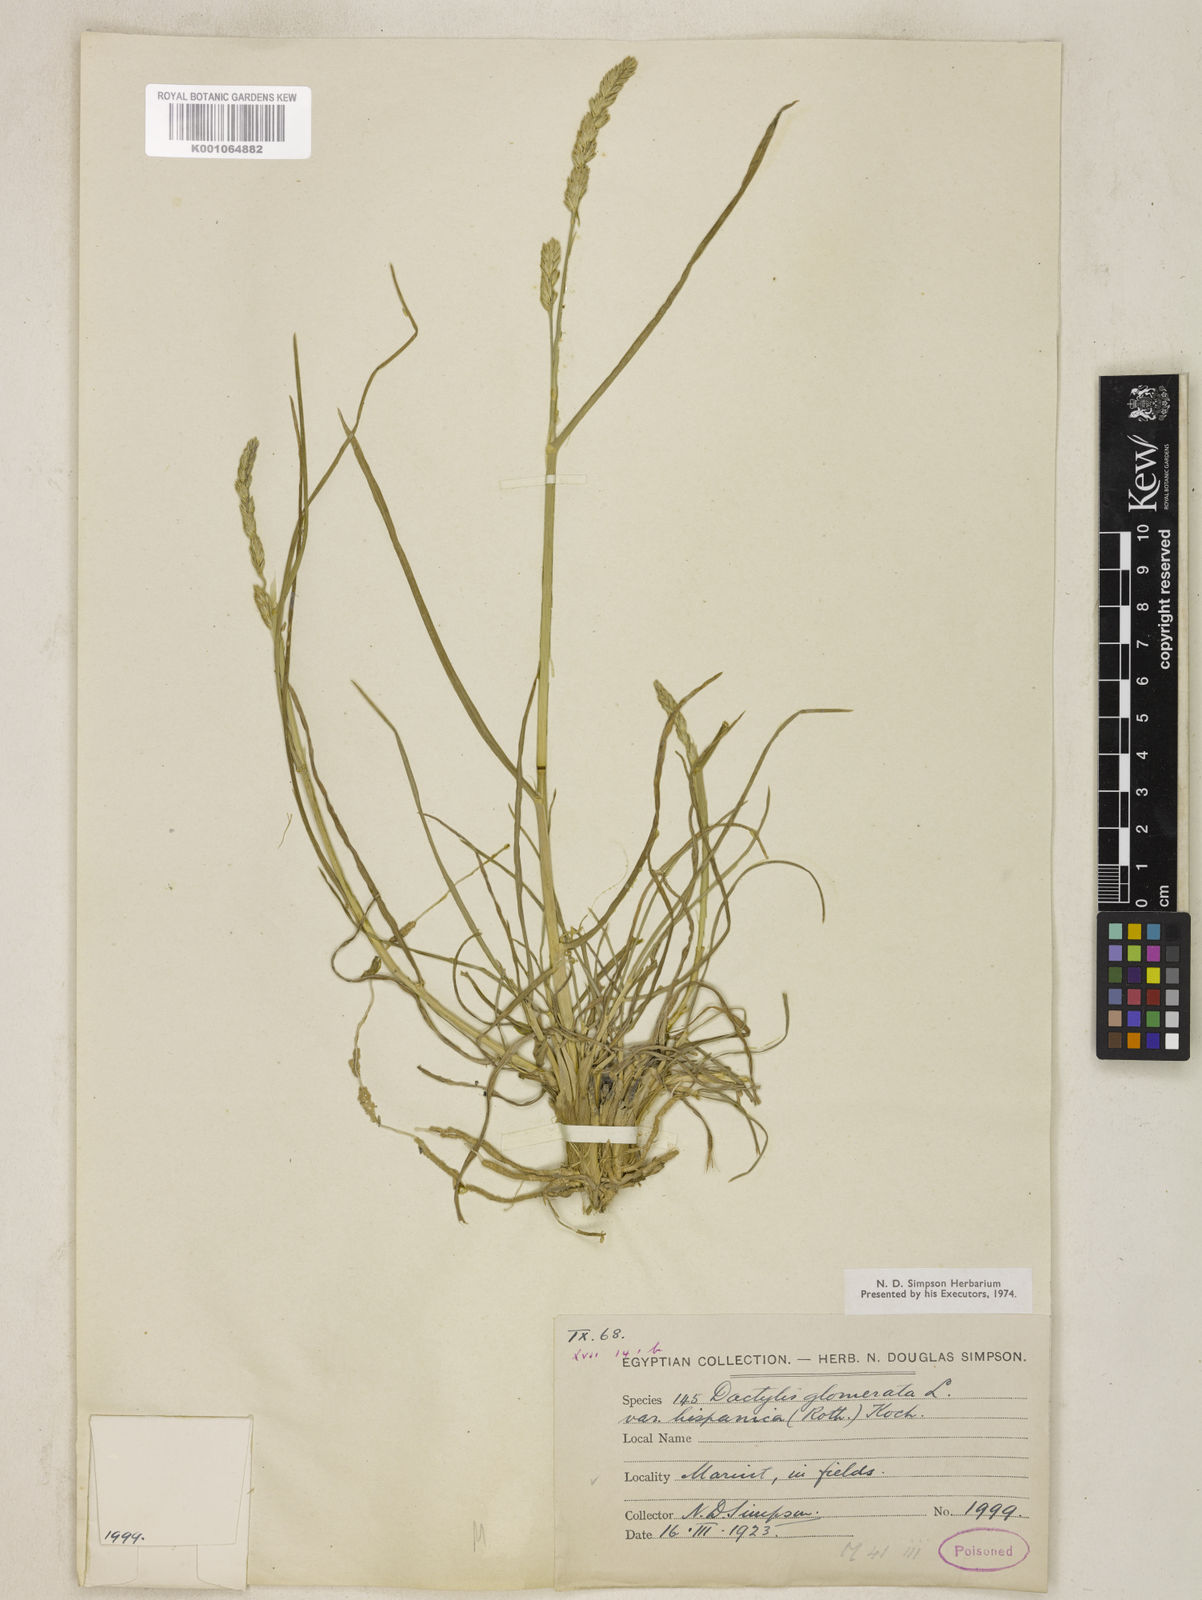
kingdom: Plantae
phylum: Tracheophyta
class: Liliopsida
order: Poales
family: Poaceae
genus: Dactylis
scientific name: Dactylis glomerata
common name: Orchardgrass
